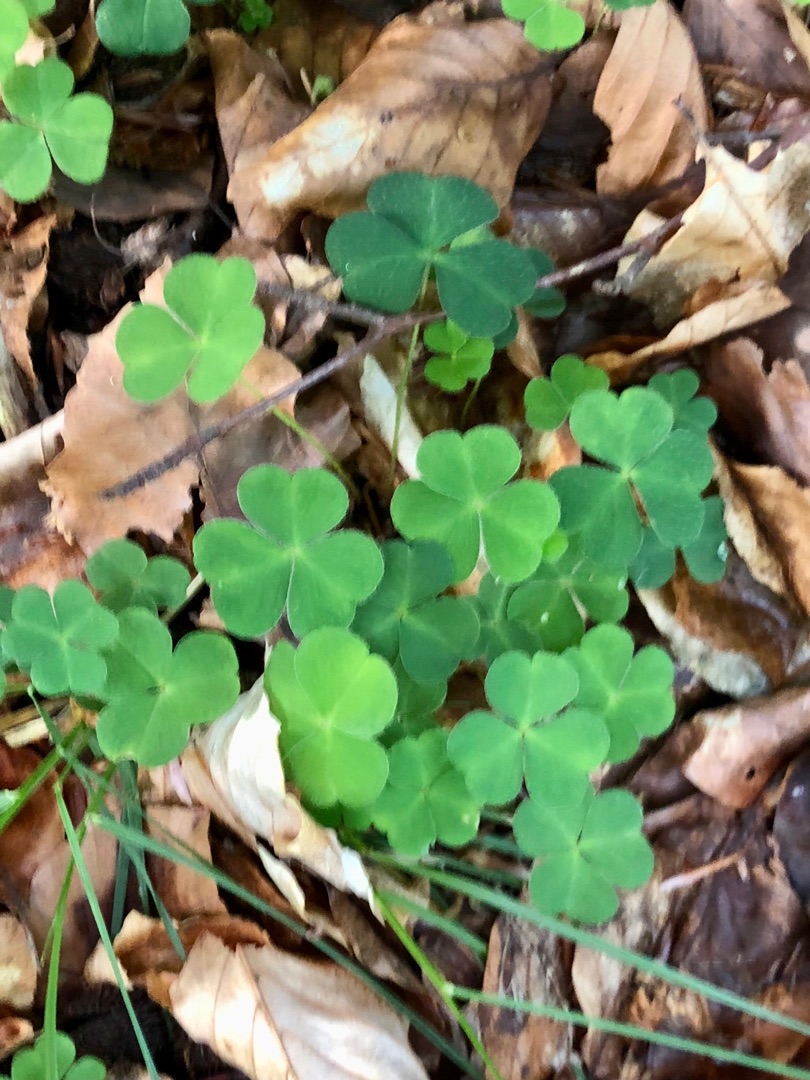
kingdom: Plantae
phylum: Tracheophyta
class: Magnoliopsida
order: Oxalidales
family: Oxalidaceae
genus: Oxalis
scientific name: Oxalis acetosella
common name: Skovsyre
